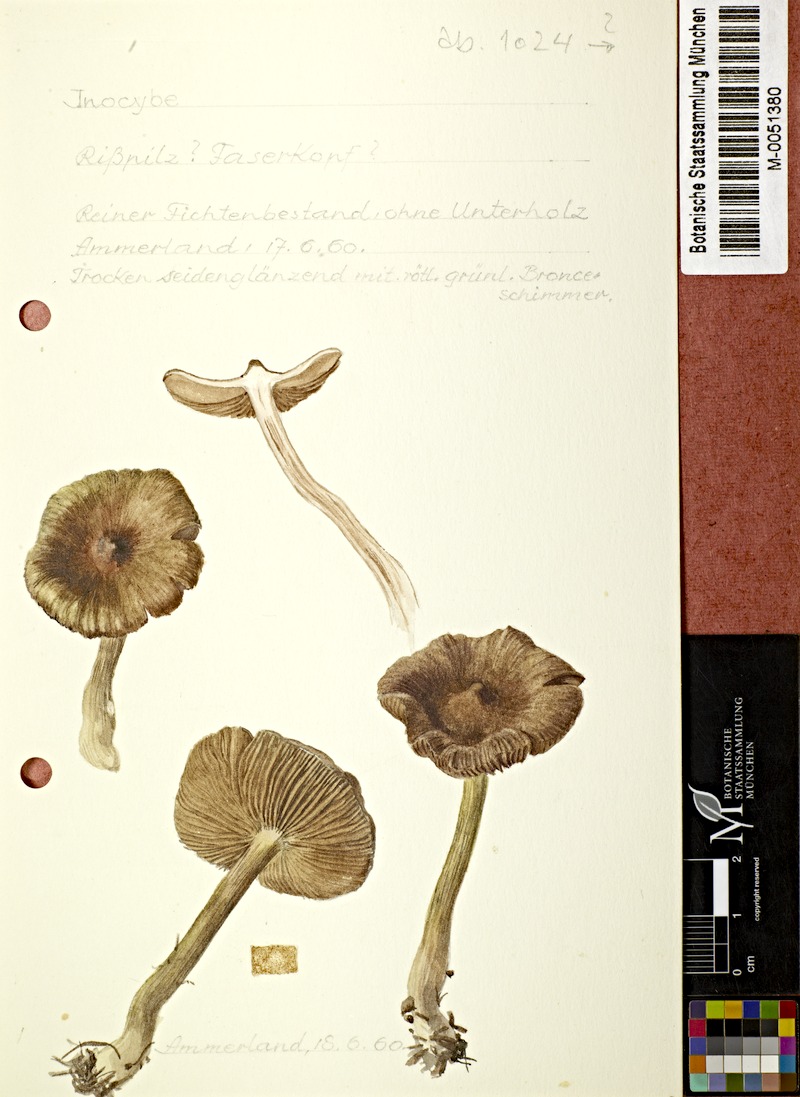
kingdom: Fungi
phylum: Basidiomycota
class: Agaricomycetes
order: Agaricales
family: Inocybaceae
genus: Inocybe
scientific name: Inocybe
